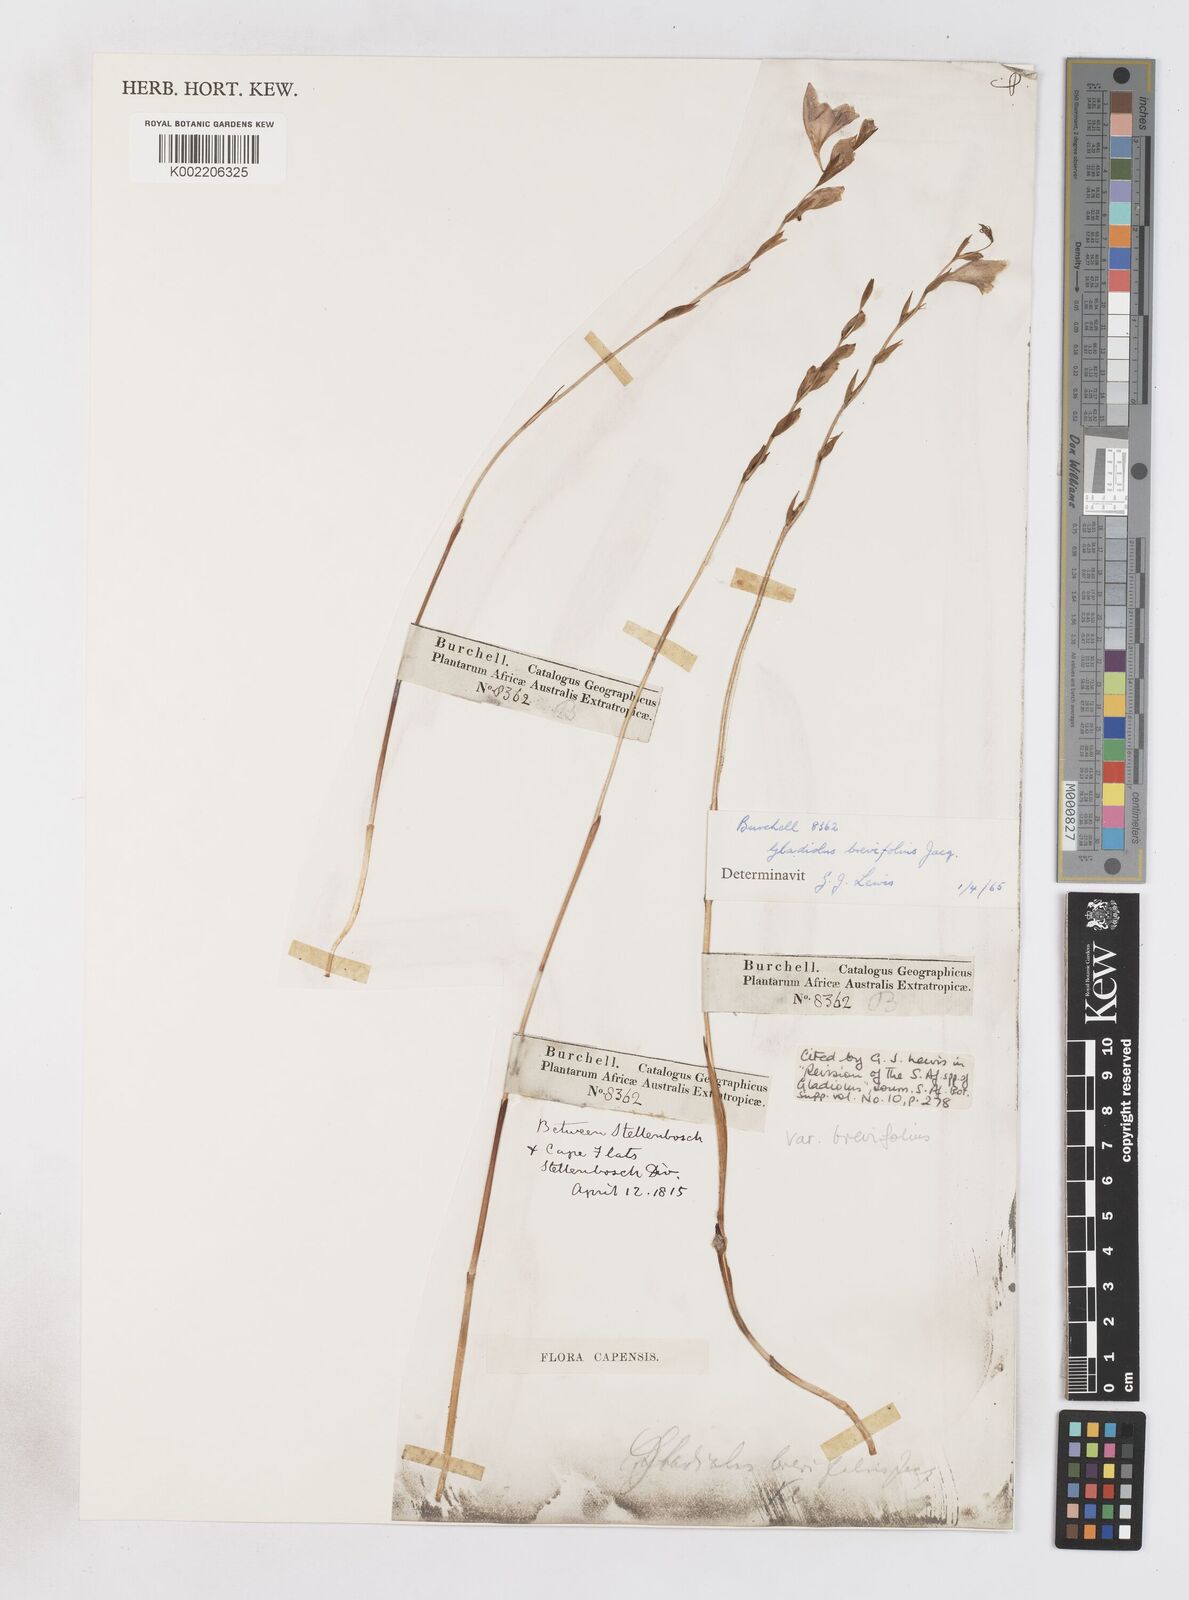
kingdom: Plantae
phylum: Tracheophyta
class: Liliopsida
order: Asparagales
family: Iridaceae
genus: Gladiolus
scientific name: Gladiolus brevifolius
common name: March pypie
